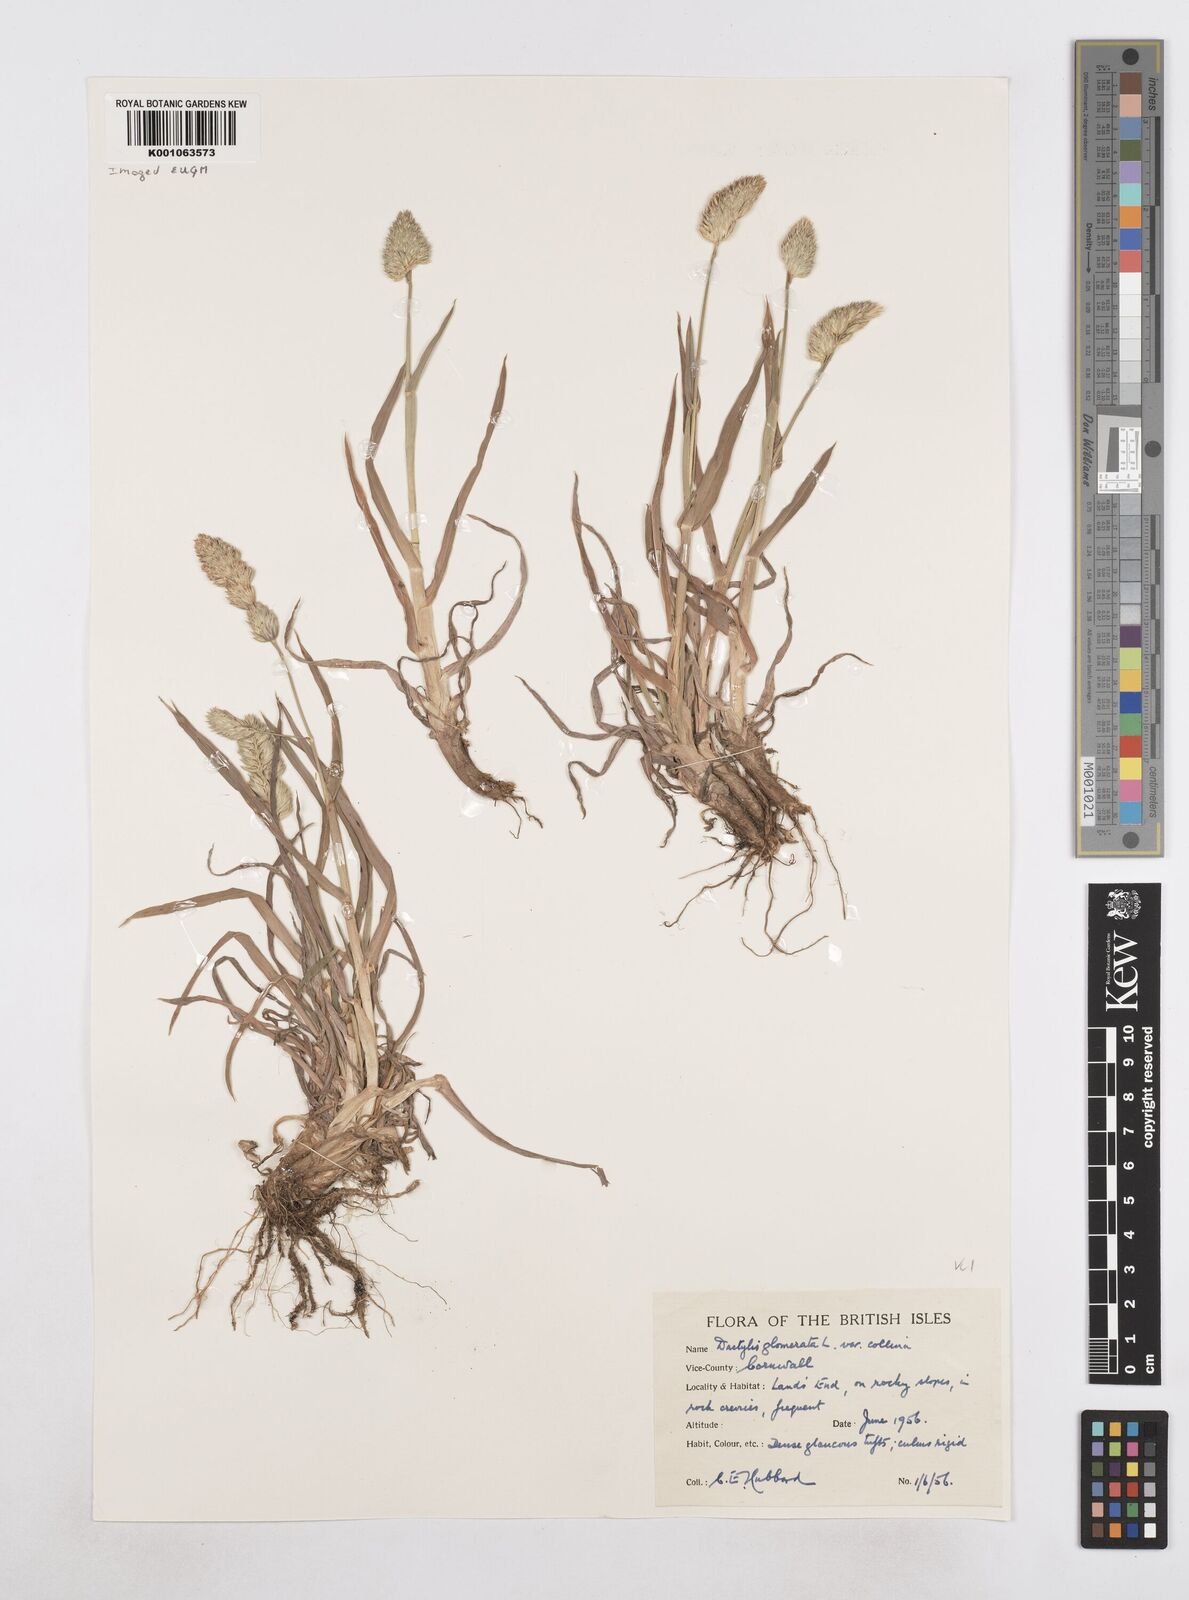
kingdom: Plantae
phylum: Tracheophyta
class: Liliopsida
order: Poales
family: Poaceae
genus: Dactylis
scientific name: Dactylis glomerata
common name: Orchardgrass
